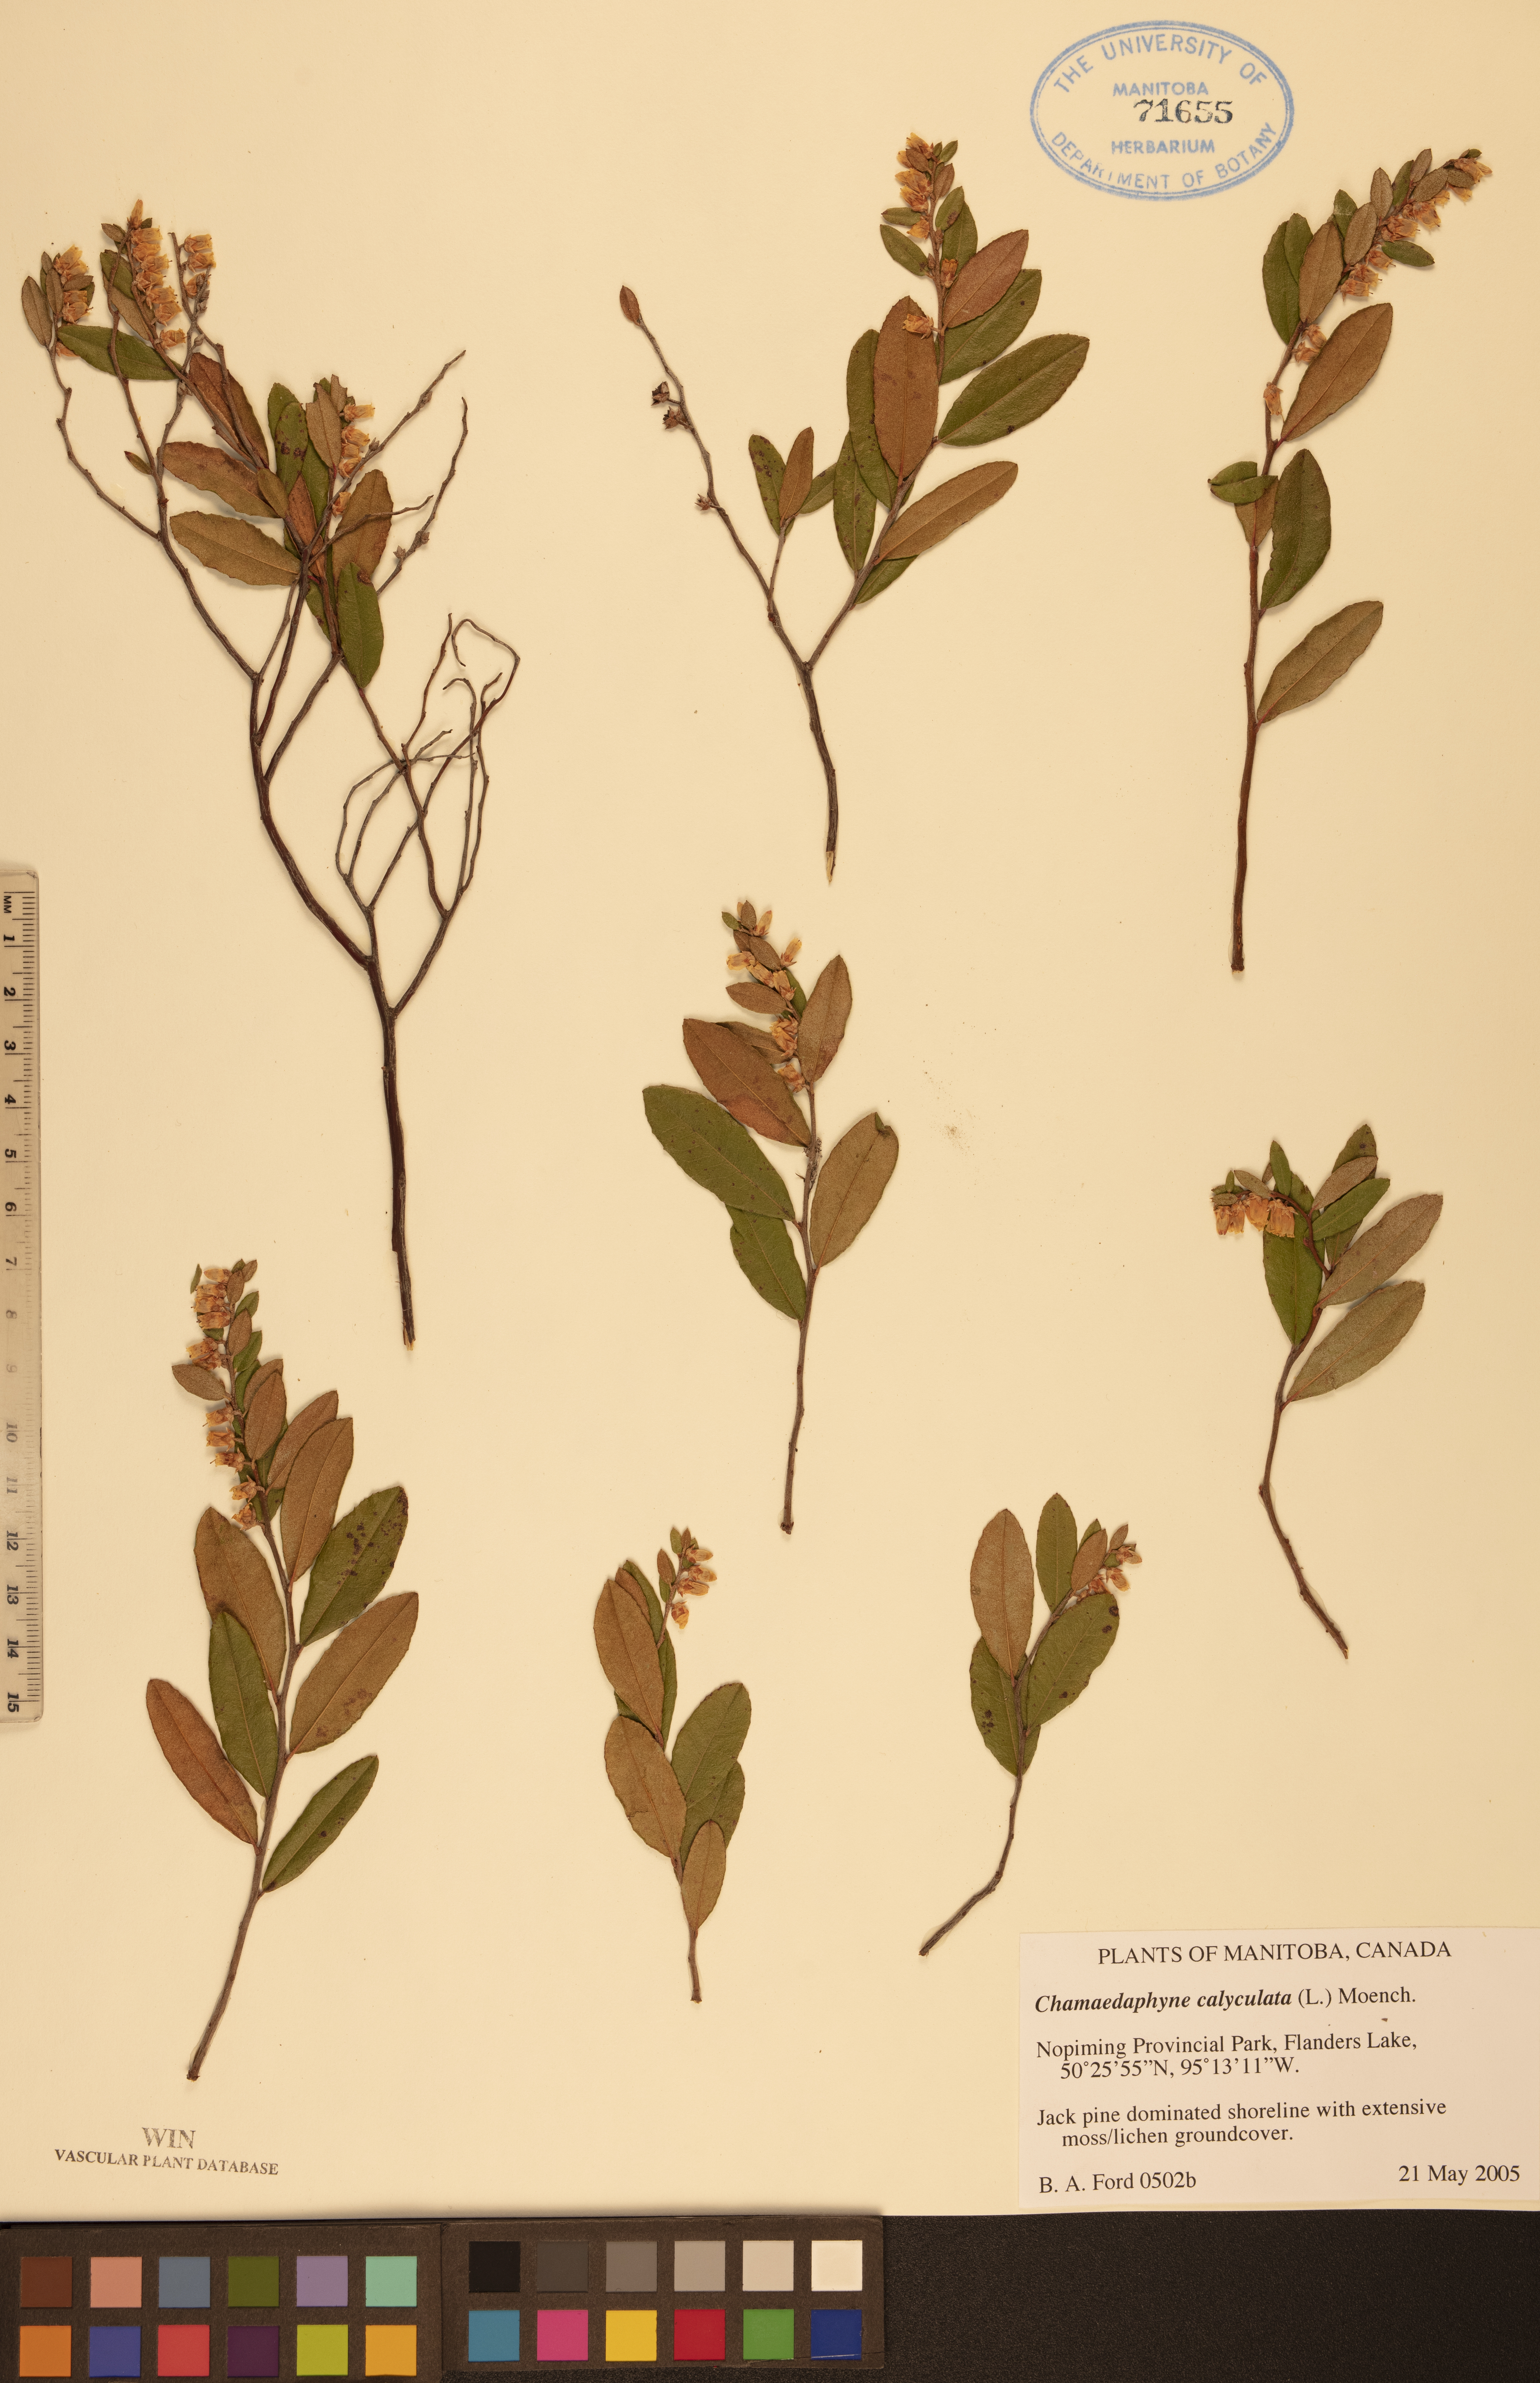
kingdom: Plantae
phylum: Tracheophyta
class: Magnoliopsida
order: Ericales
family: Ericaceae
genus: Chamaedaphne
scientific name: Chamaedaphne calyculata
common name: Leatherleaf
